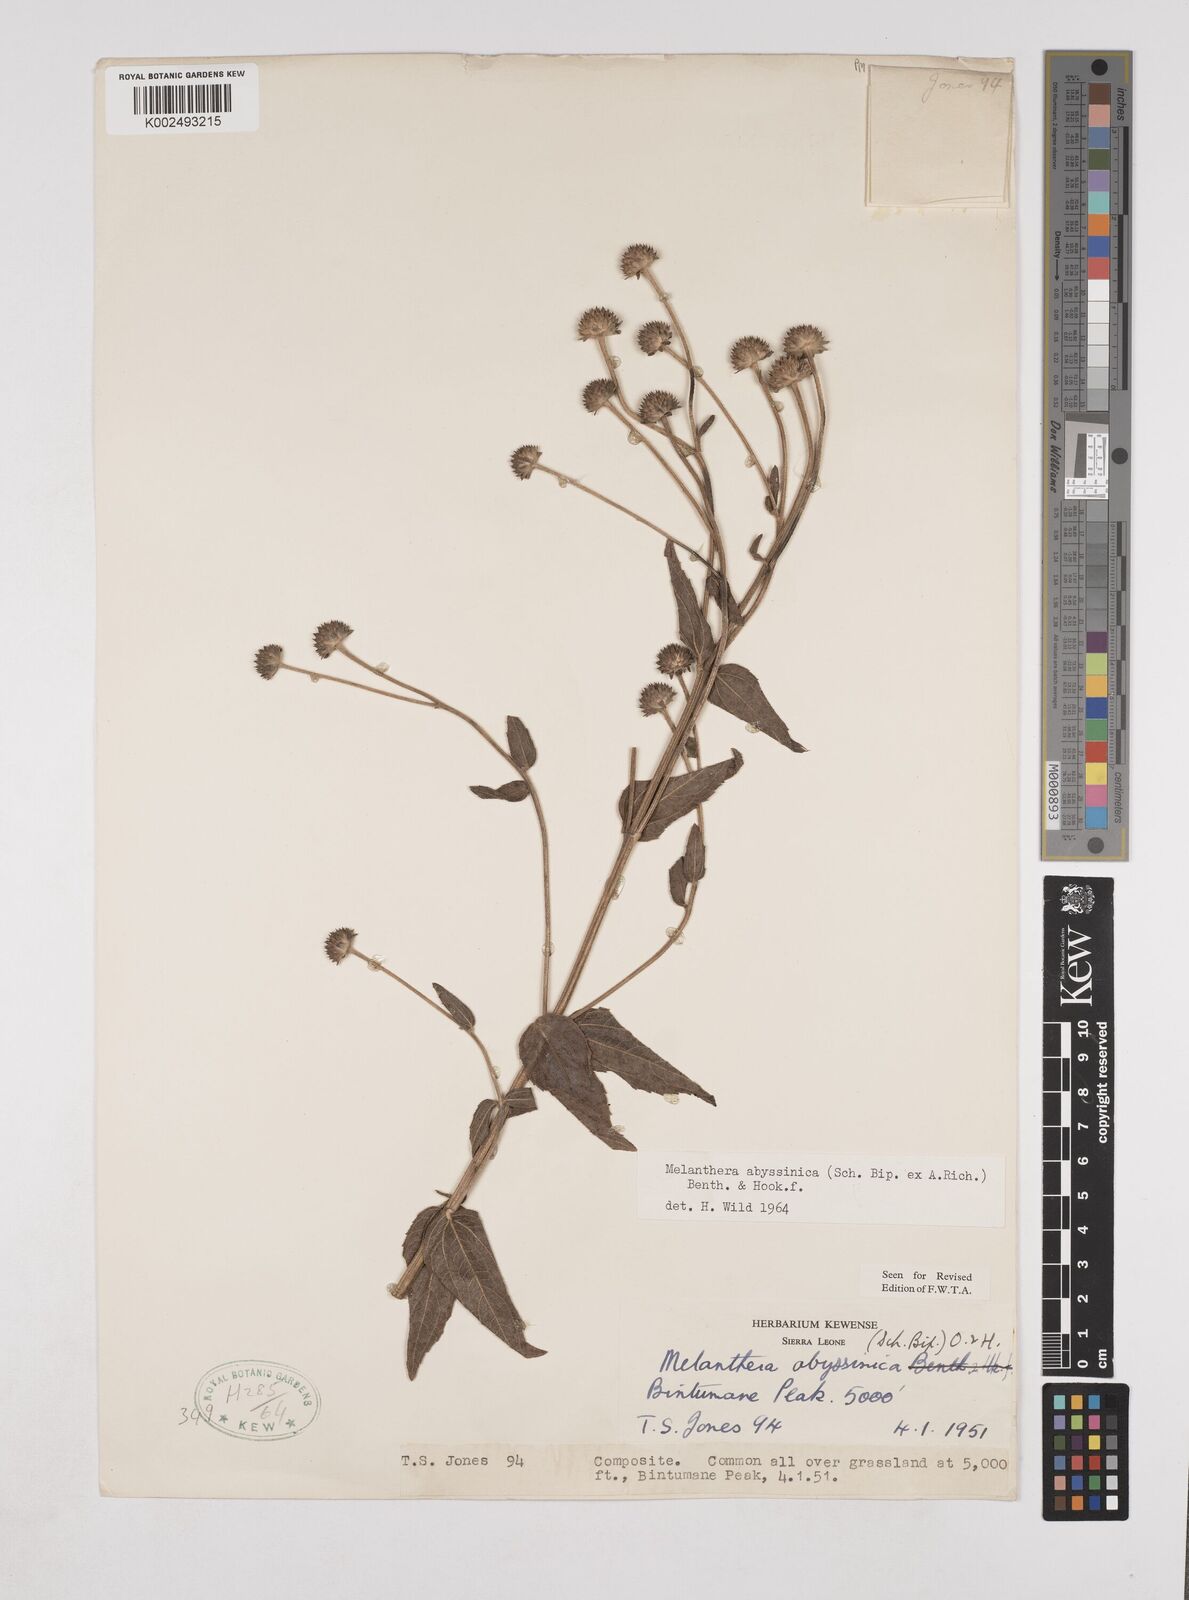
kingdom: Plantae
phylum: Tracheophyta
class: Magnoliopsida
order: Asterales
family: Asteraceae
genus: Lipotriche
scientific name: Lipotriche abyssinica
